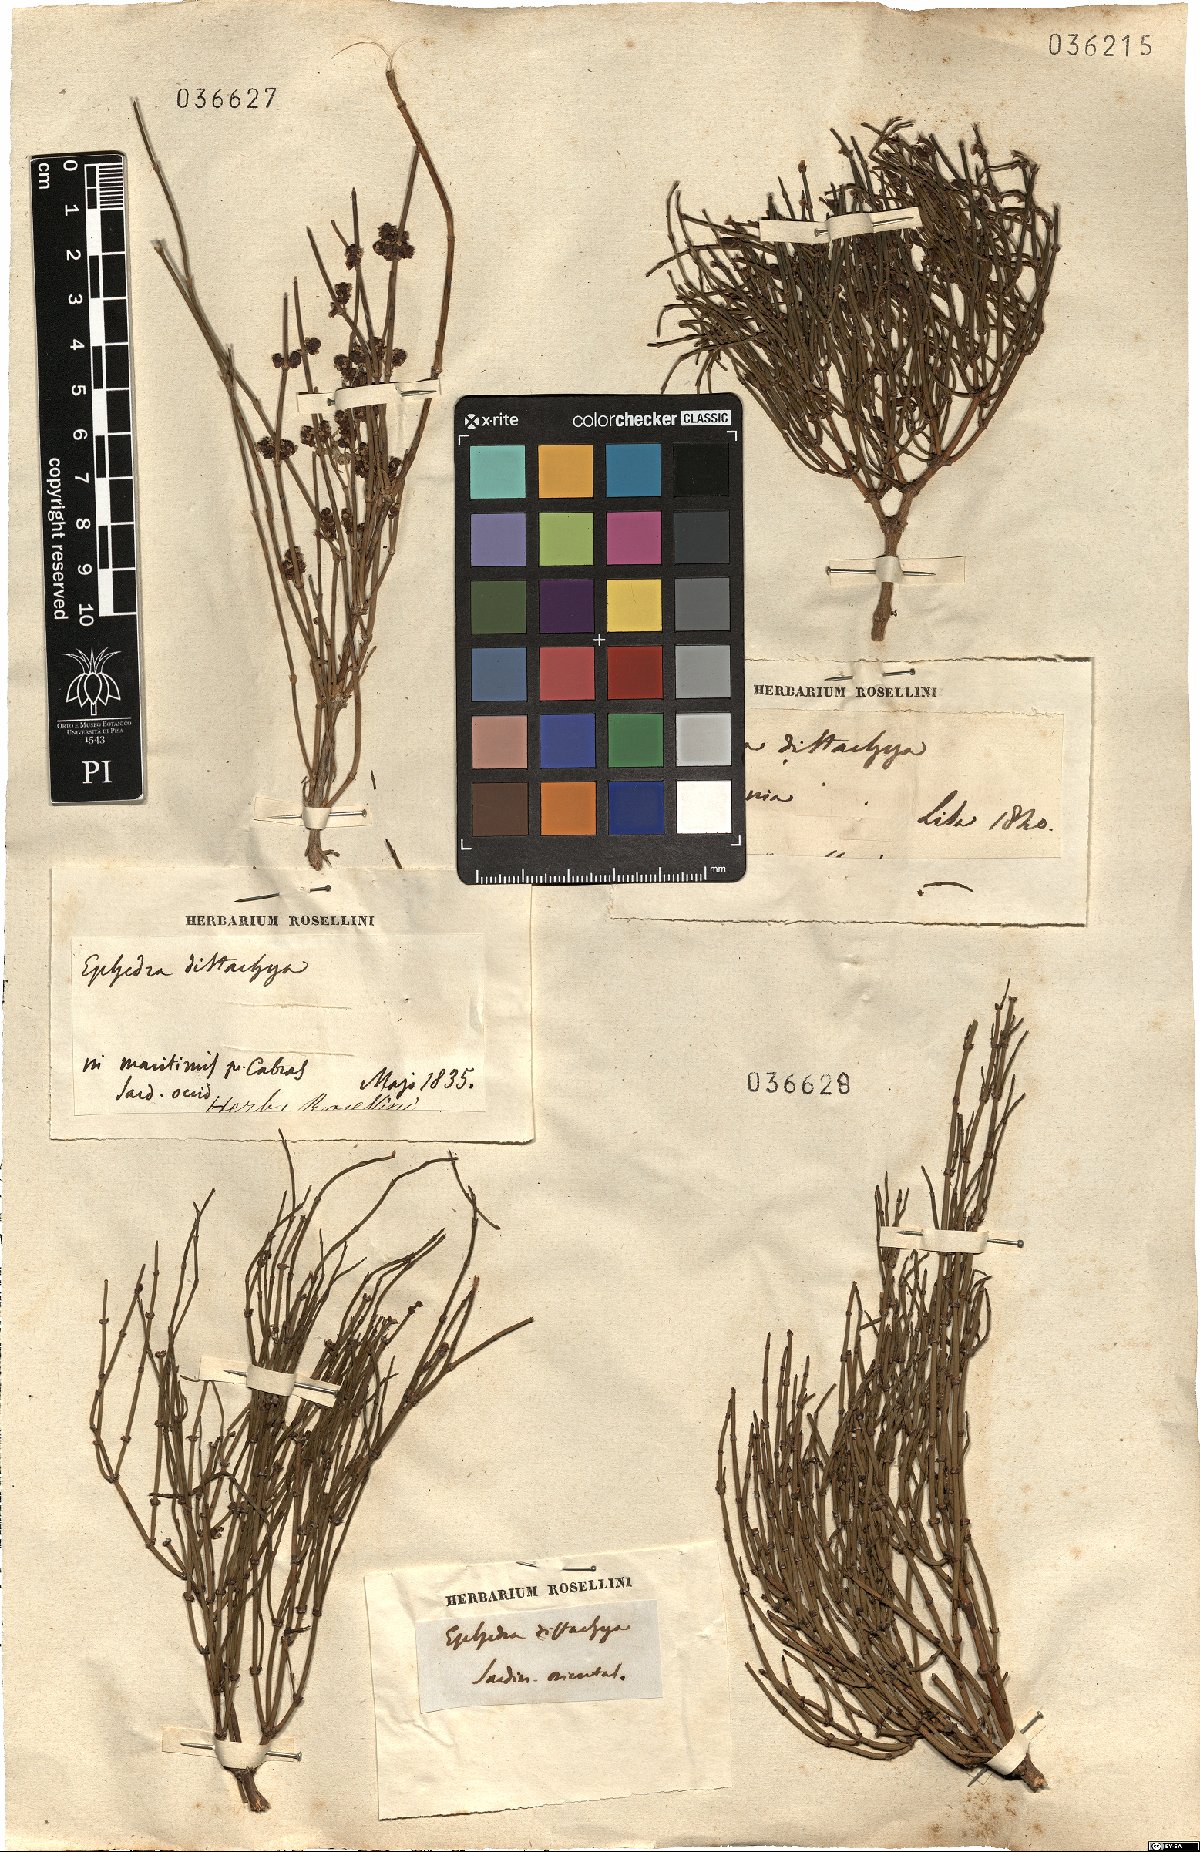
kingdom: Plantae
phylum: Tracheophyta
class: Gnetopsida
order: Ephedrales
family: Ephedraceae
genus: Ephedra
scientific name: Ephedra distachya
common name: Sea grape
